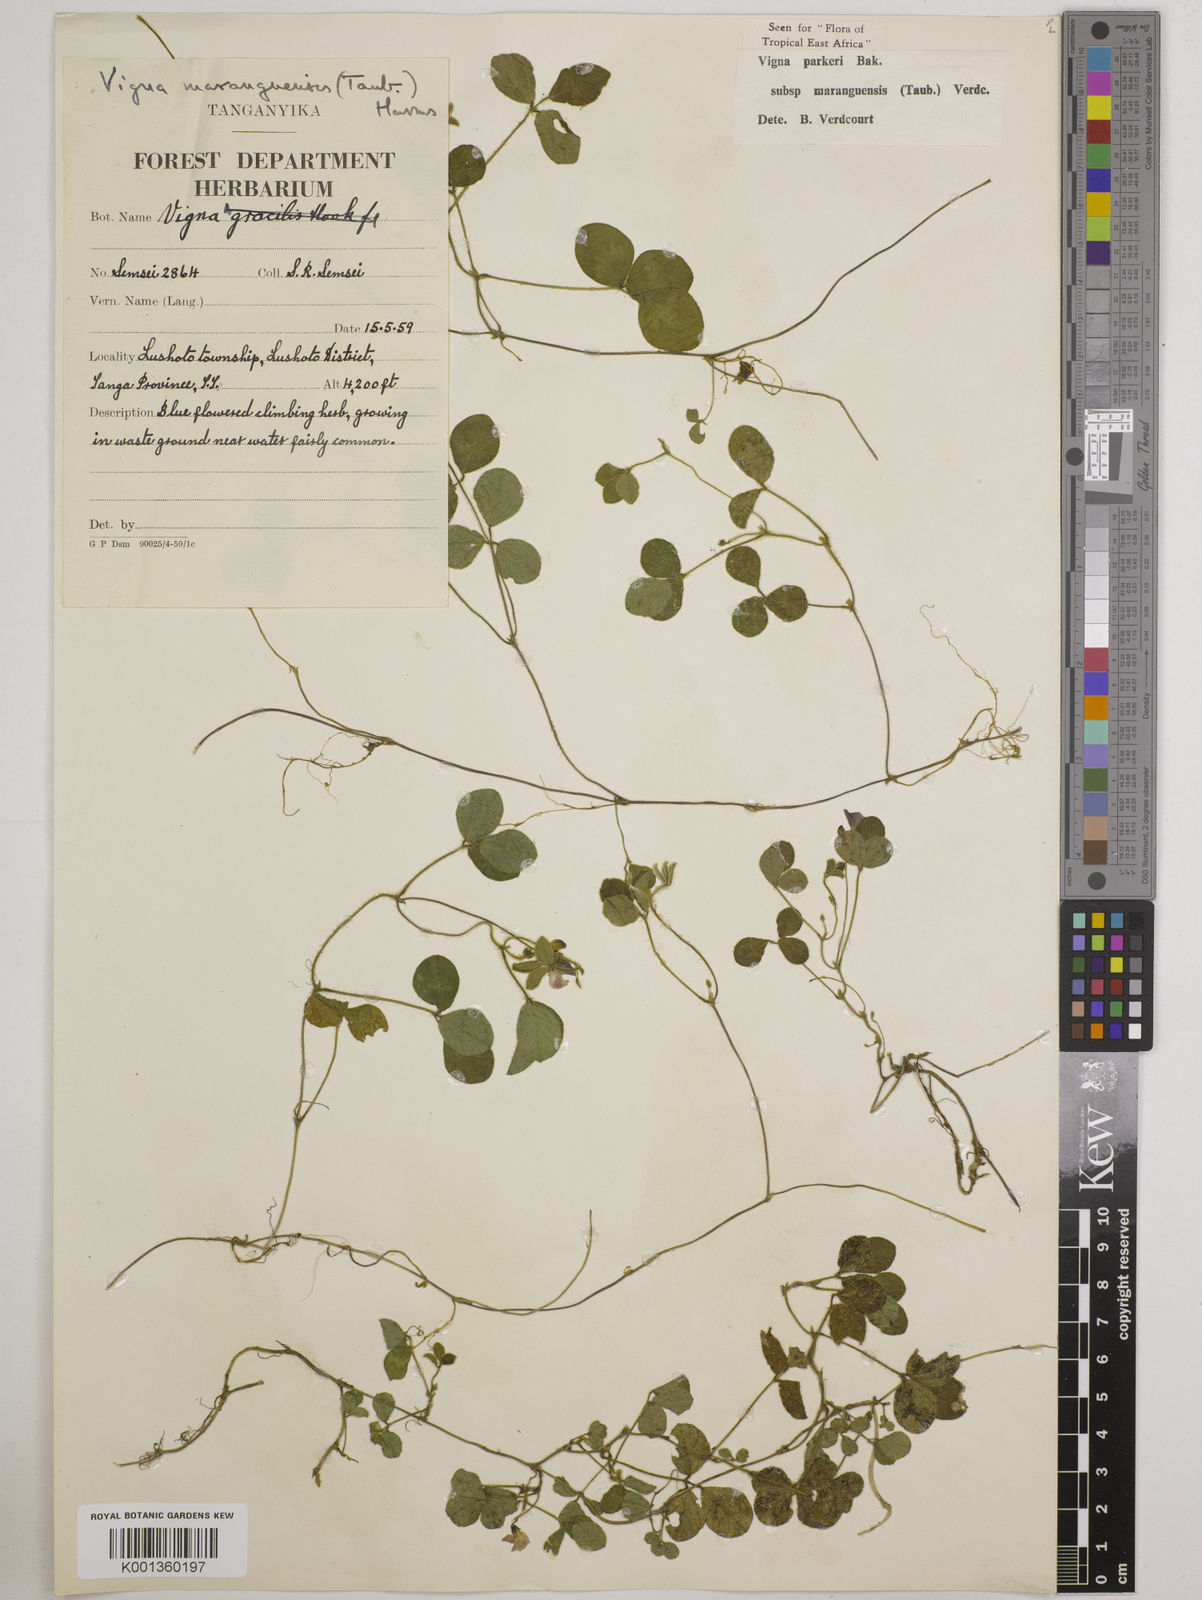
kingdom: Plantae
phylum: Tracheophyta
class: Magnoliopsida
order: Fabales
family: Fabaceae
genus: Vigna
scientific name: Vigna
